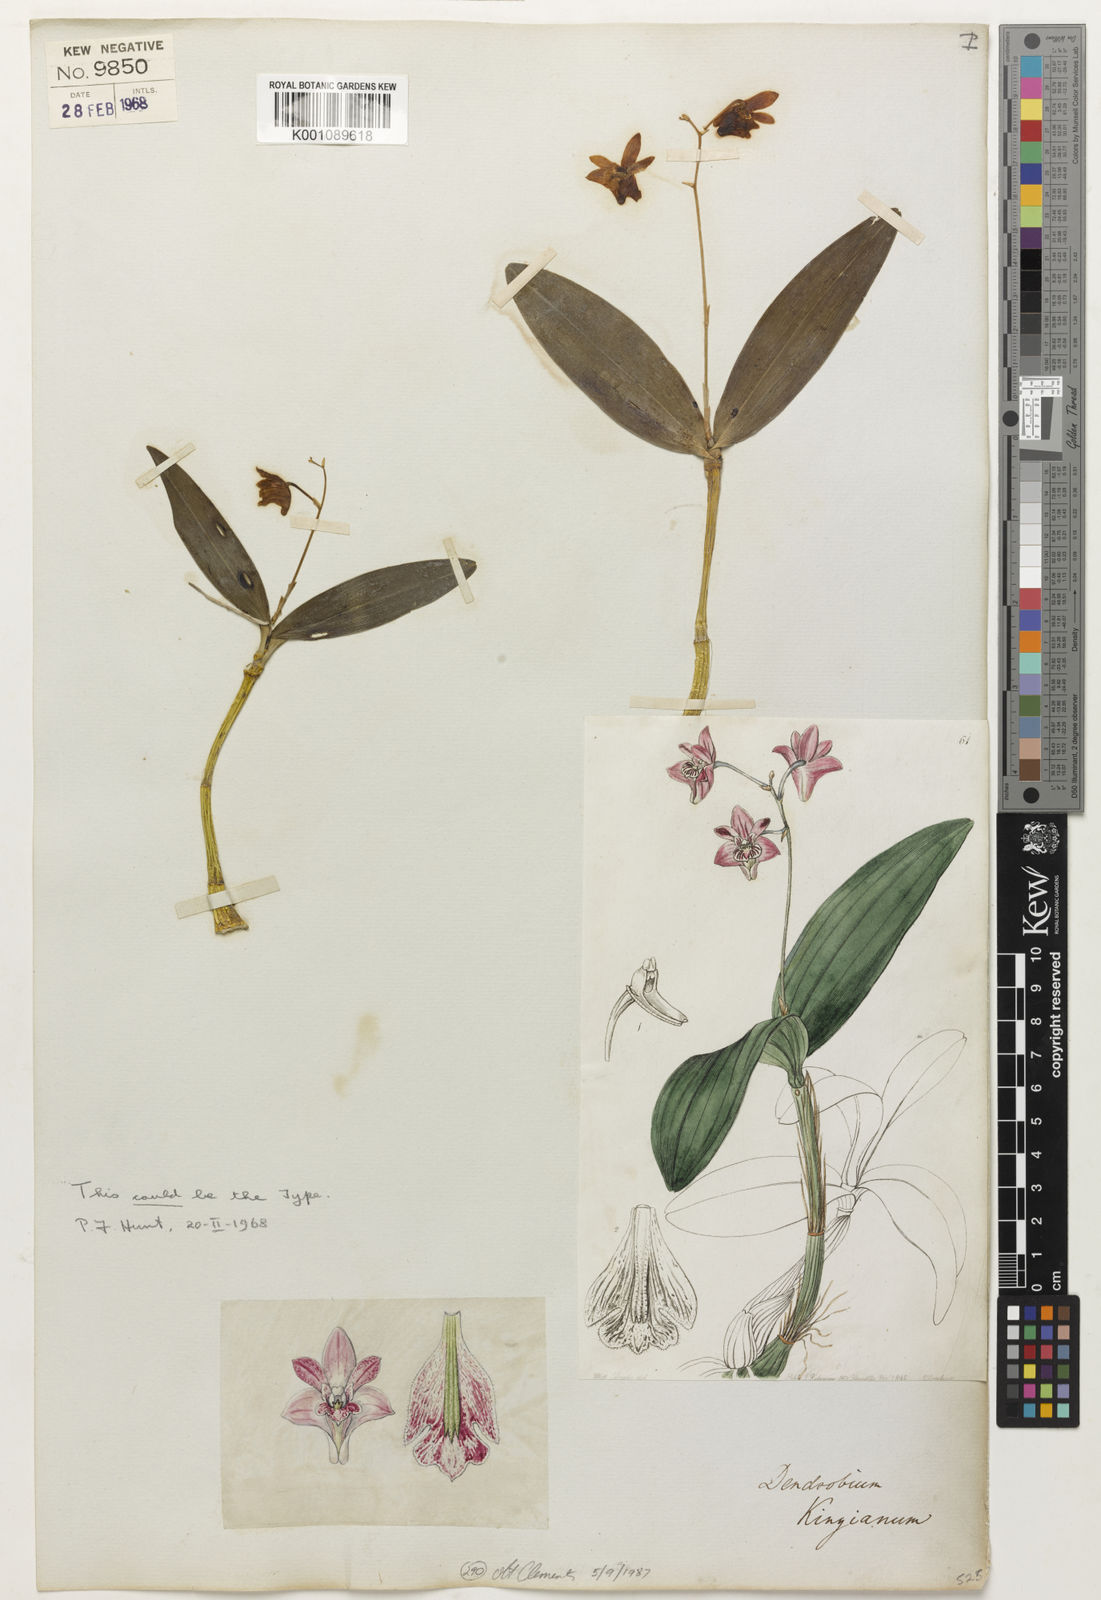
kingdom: Plantae
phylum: Tracheophyta
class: Liliopsida
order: Asparagales
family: Orchidaceae
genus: Dendrobium
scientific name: Dendrobium kingianum
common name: Pink rock orchid
